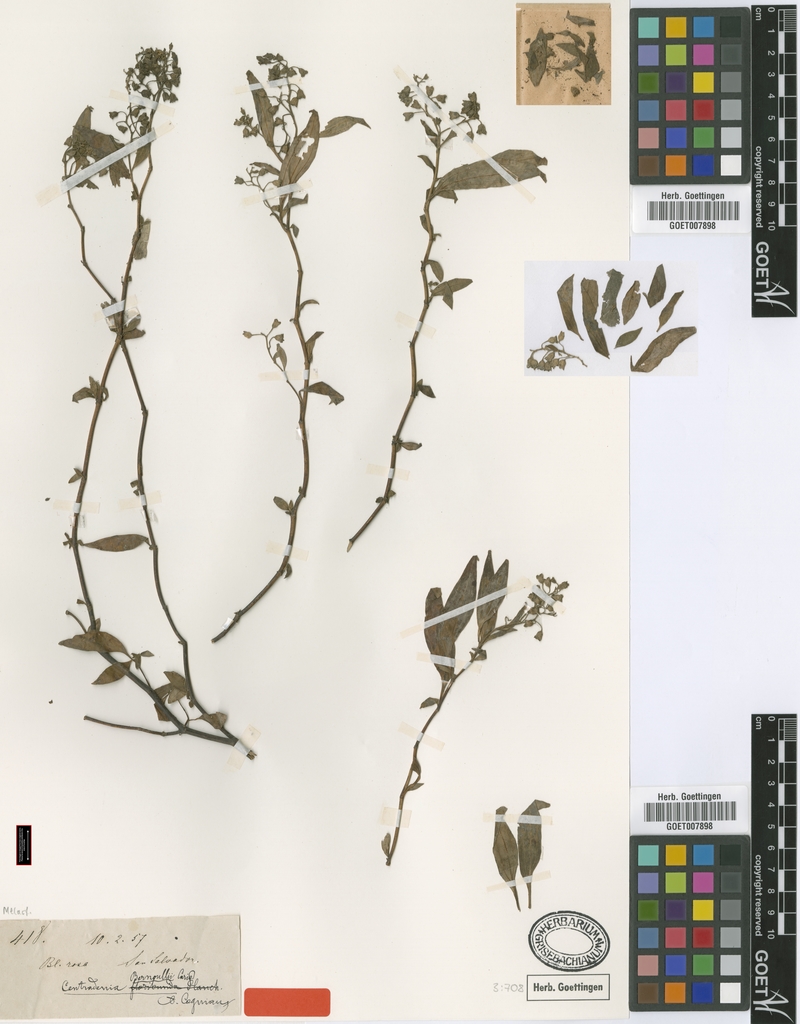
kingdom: Plantae
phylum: Tracheophyta
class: Magnoliopsida
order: Myrtales
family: Melastomataceae
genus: Centradenia
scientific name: Centradenia floribunda
